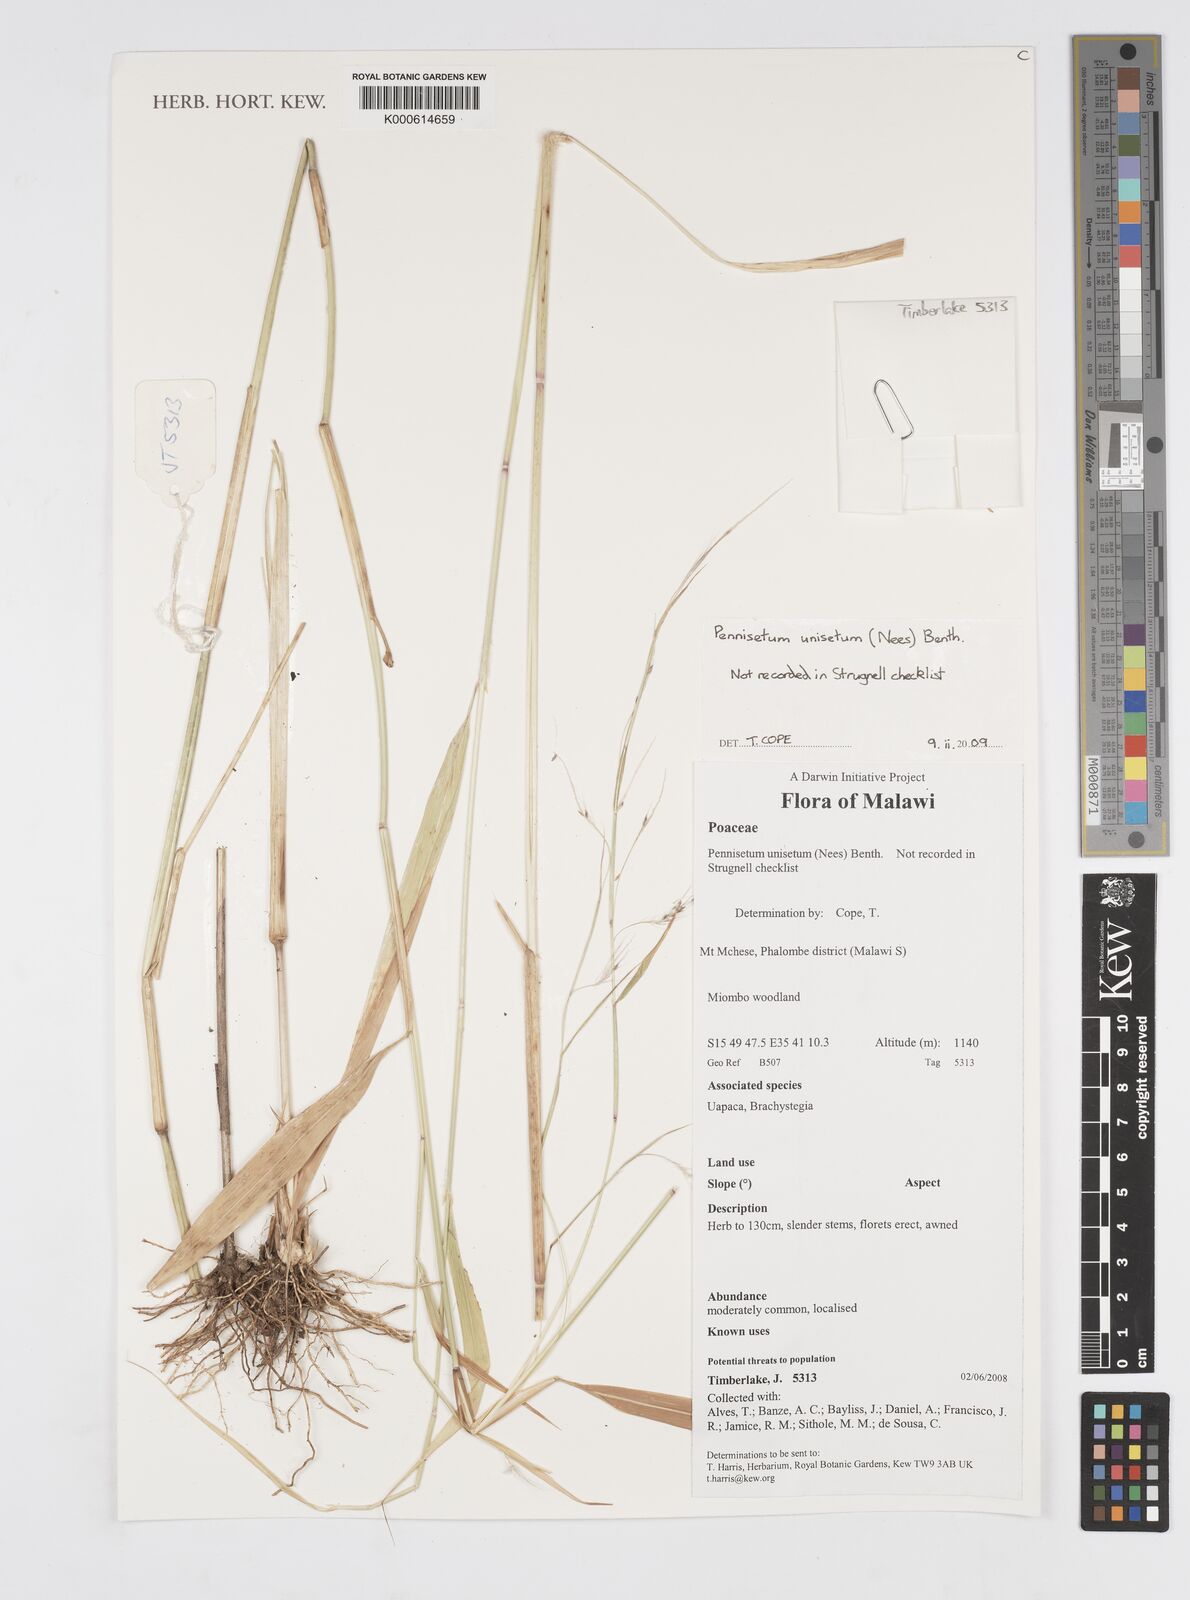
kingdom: Plantae
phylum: Tracheophyta
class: Liliopsida
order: Poales
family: Poaceae
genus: Cenchrus
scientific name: Cenchrus unisetus
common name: Natal grass
